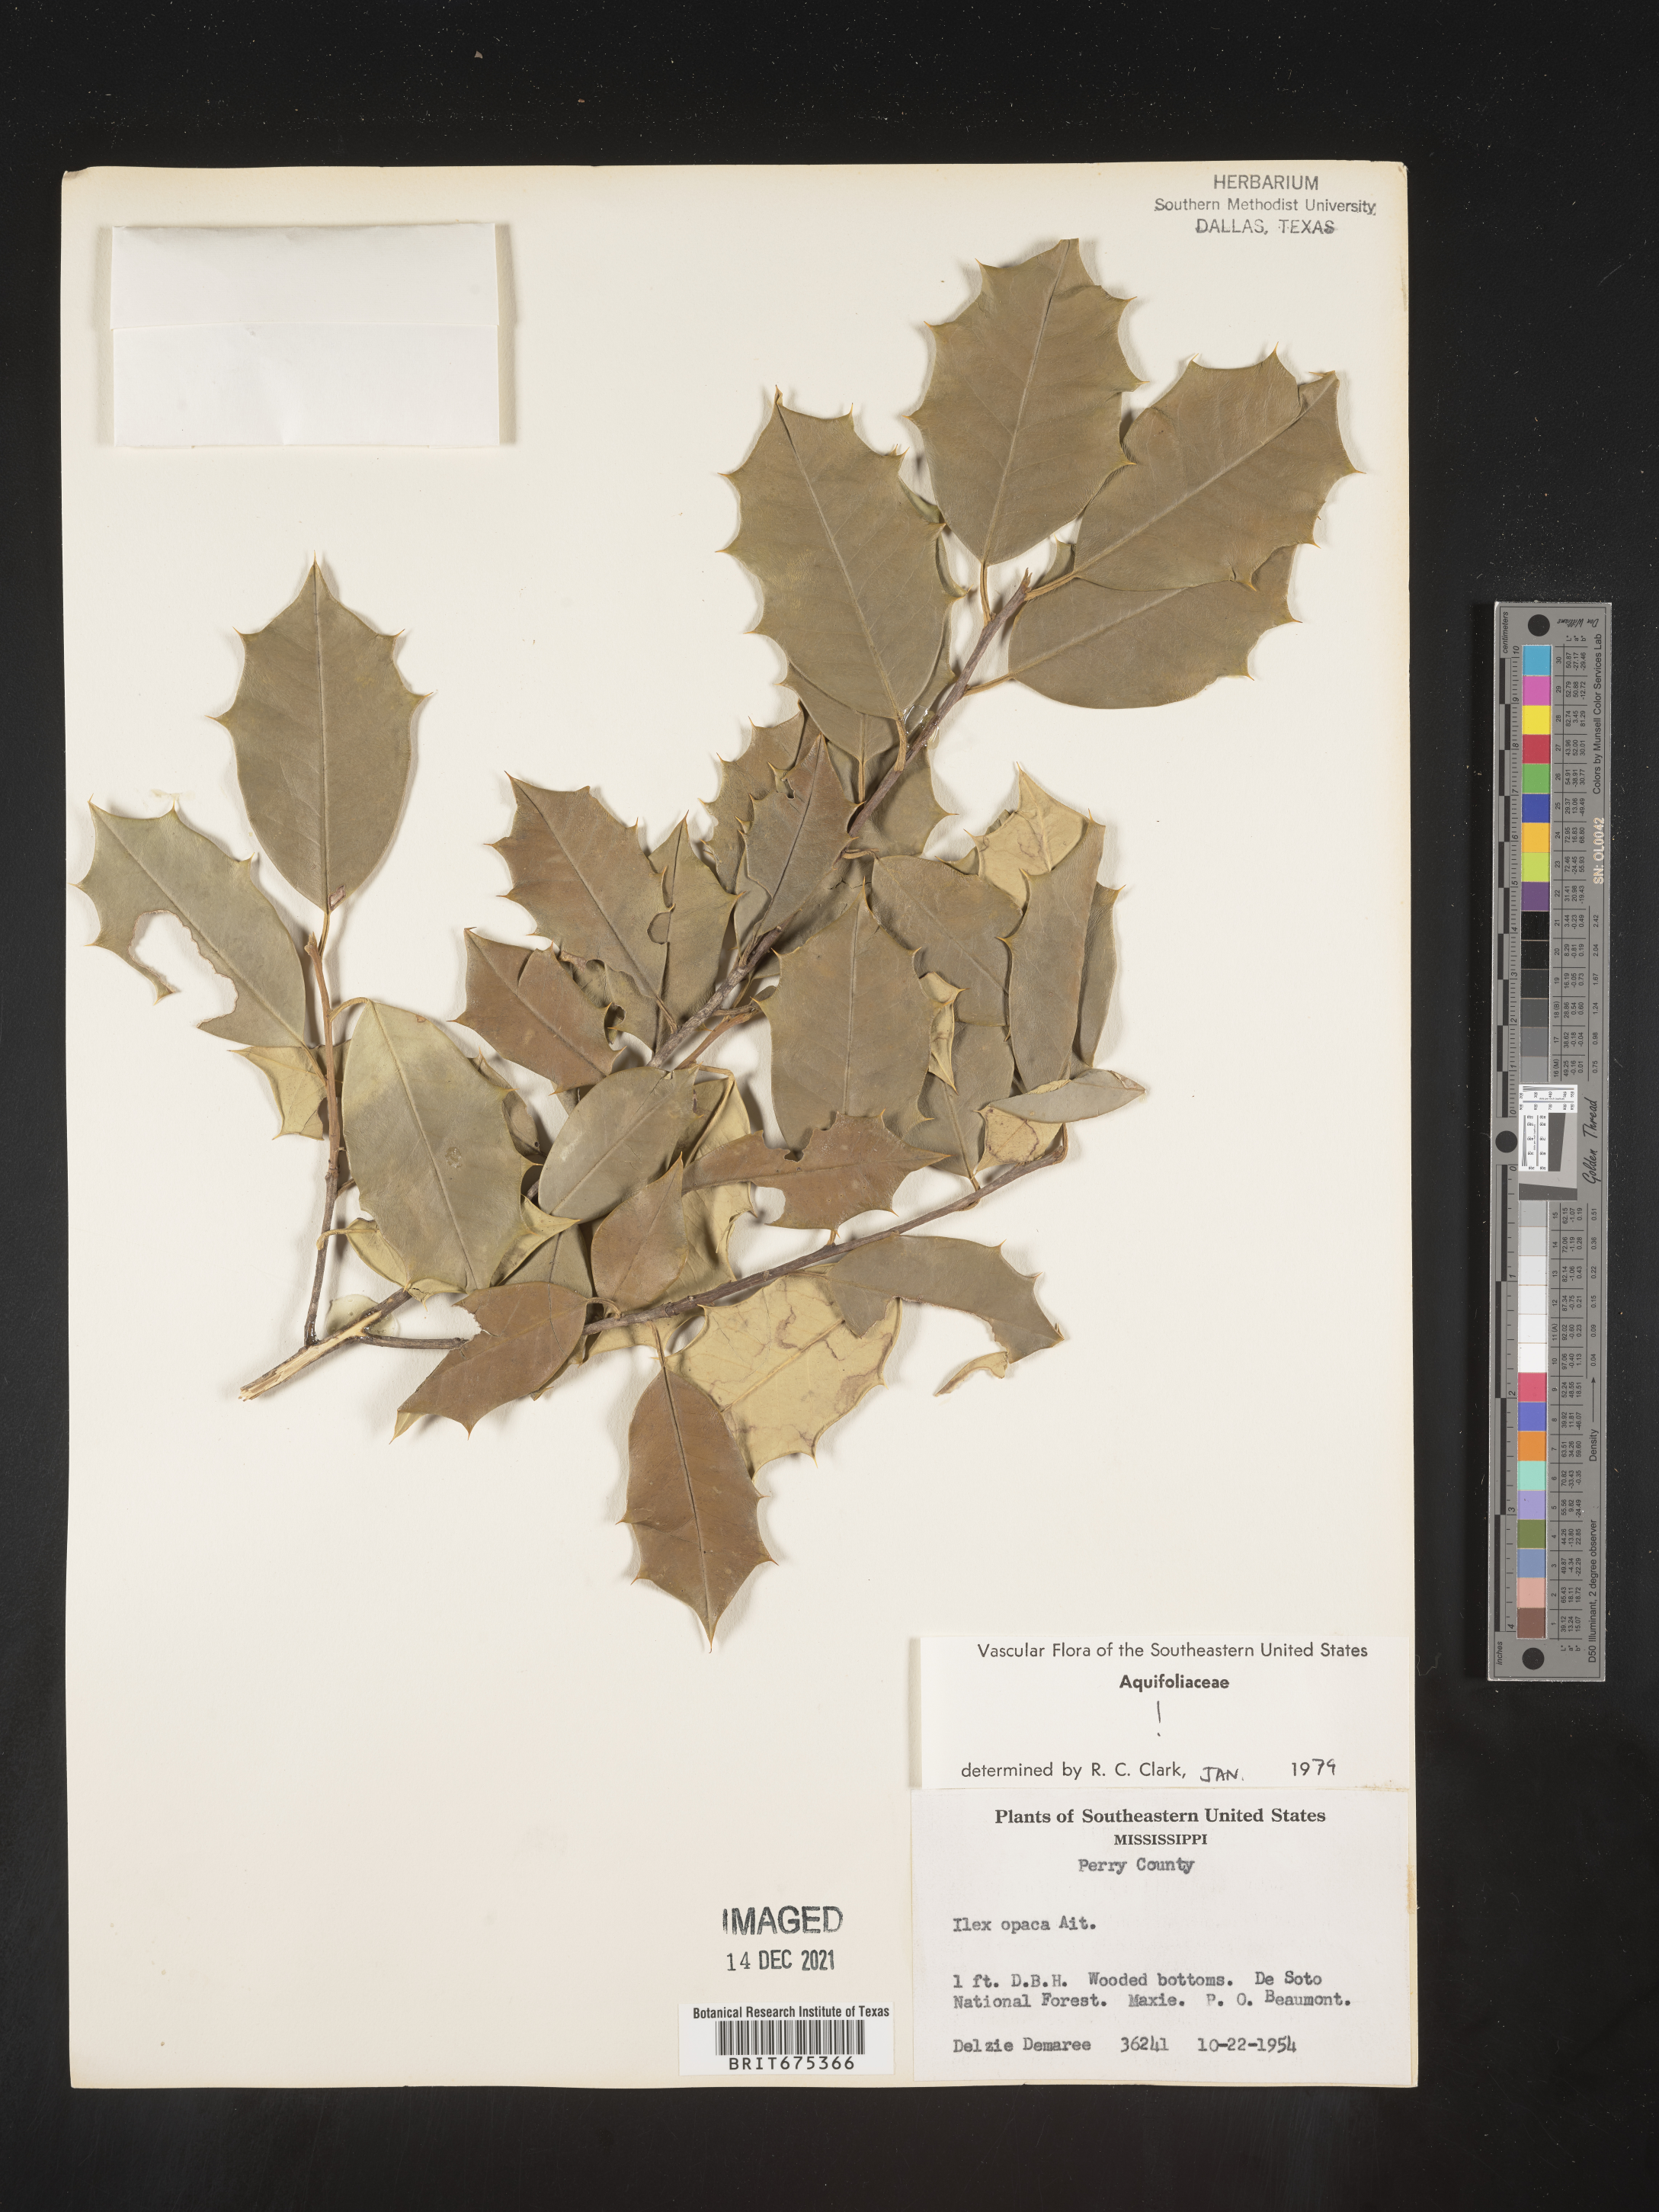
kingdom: Plantae
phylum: Tracheophyta
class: Magnoliopsida
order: Aquifoliales
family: Aquifoliaceae
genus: Ilex
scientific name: Ilex opaca
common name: American holly
